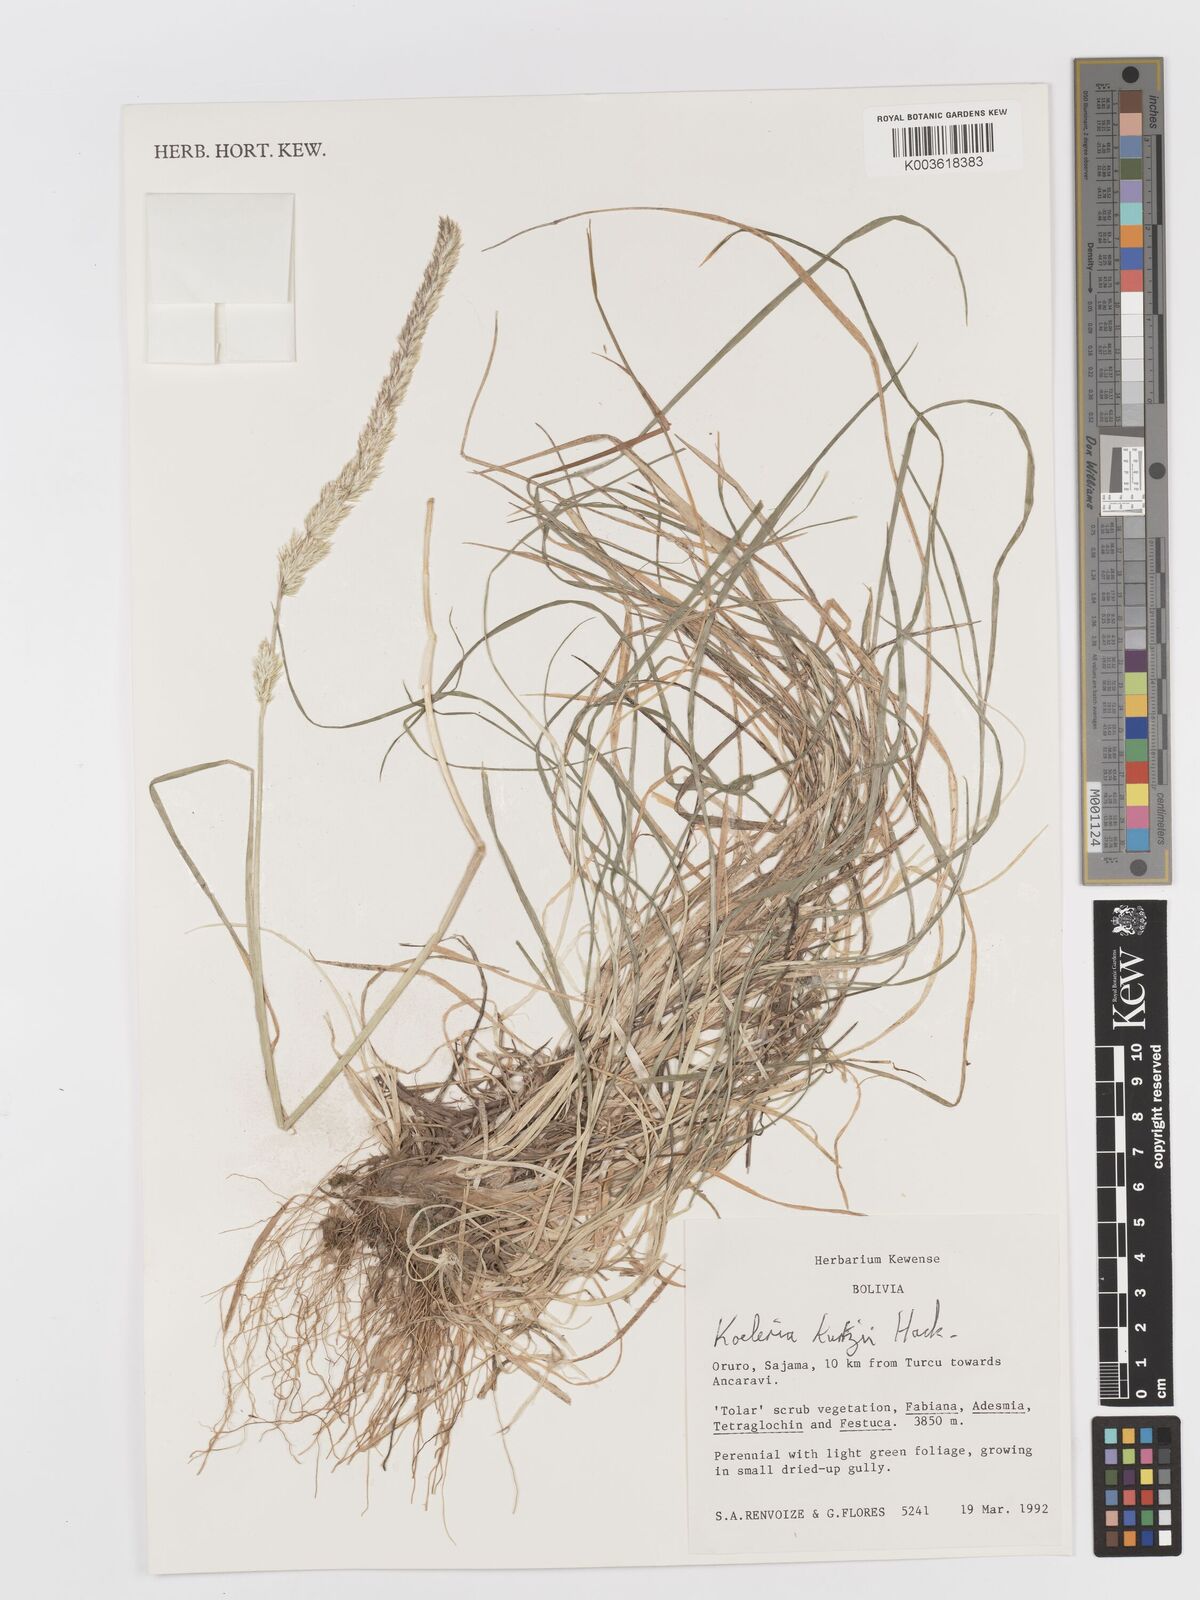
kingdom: Plantae
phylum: Tracheophyta
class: Liliopsida
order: Poales
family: Poaceae
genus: Koeleria
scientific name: Koeleria kurtzii
